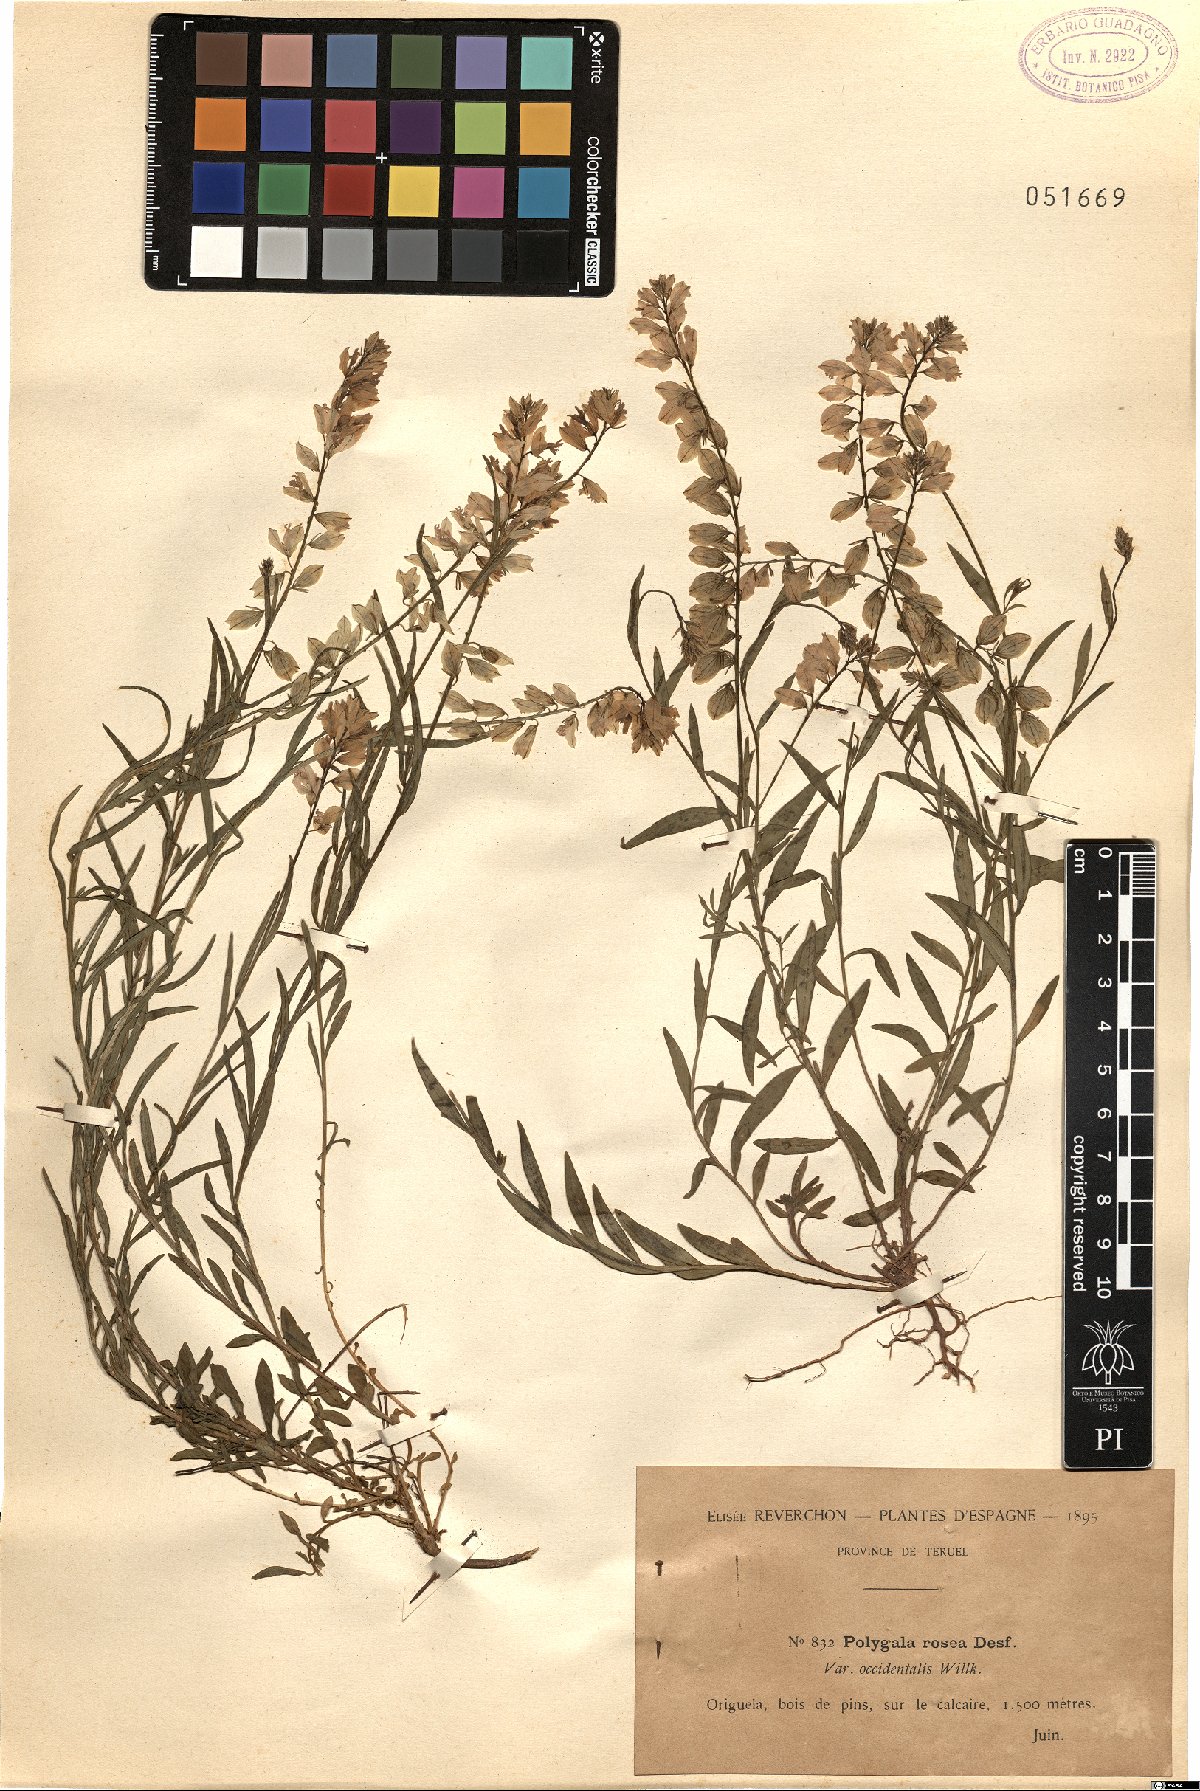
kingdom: Plantae
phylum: Tracheophyta
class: Magnoliopsida
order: Fabales
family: Polygalaceae
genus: Polygala
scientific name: Polygala nicaeensis
